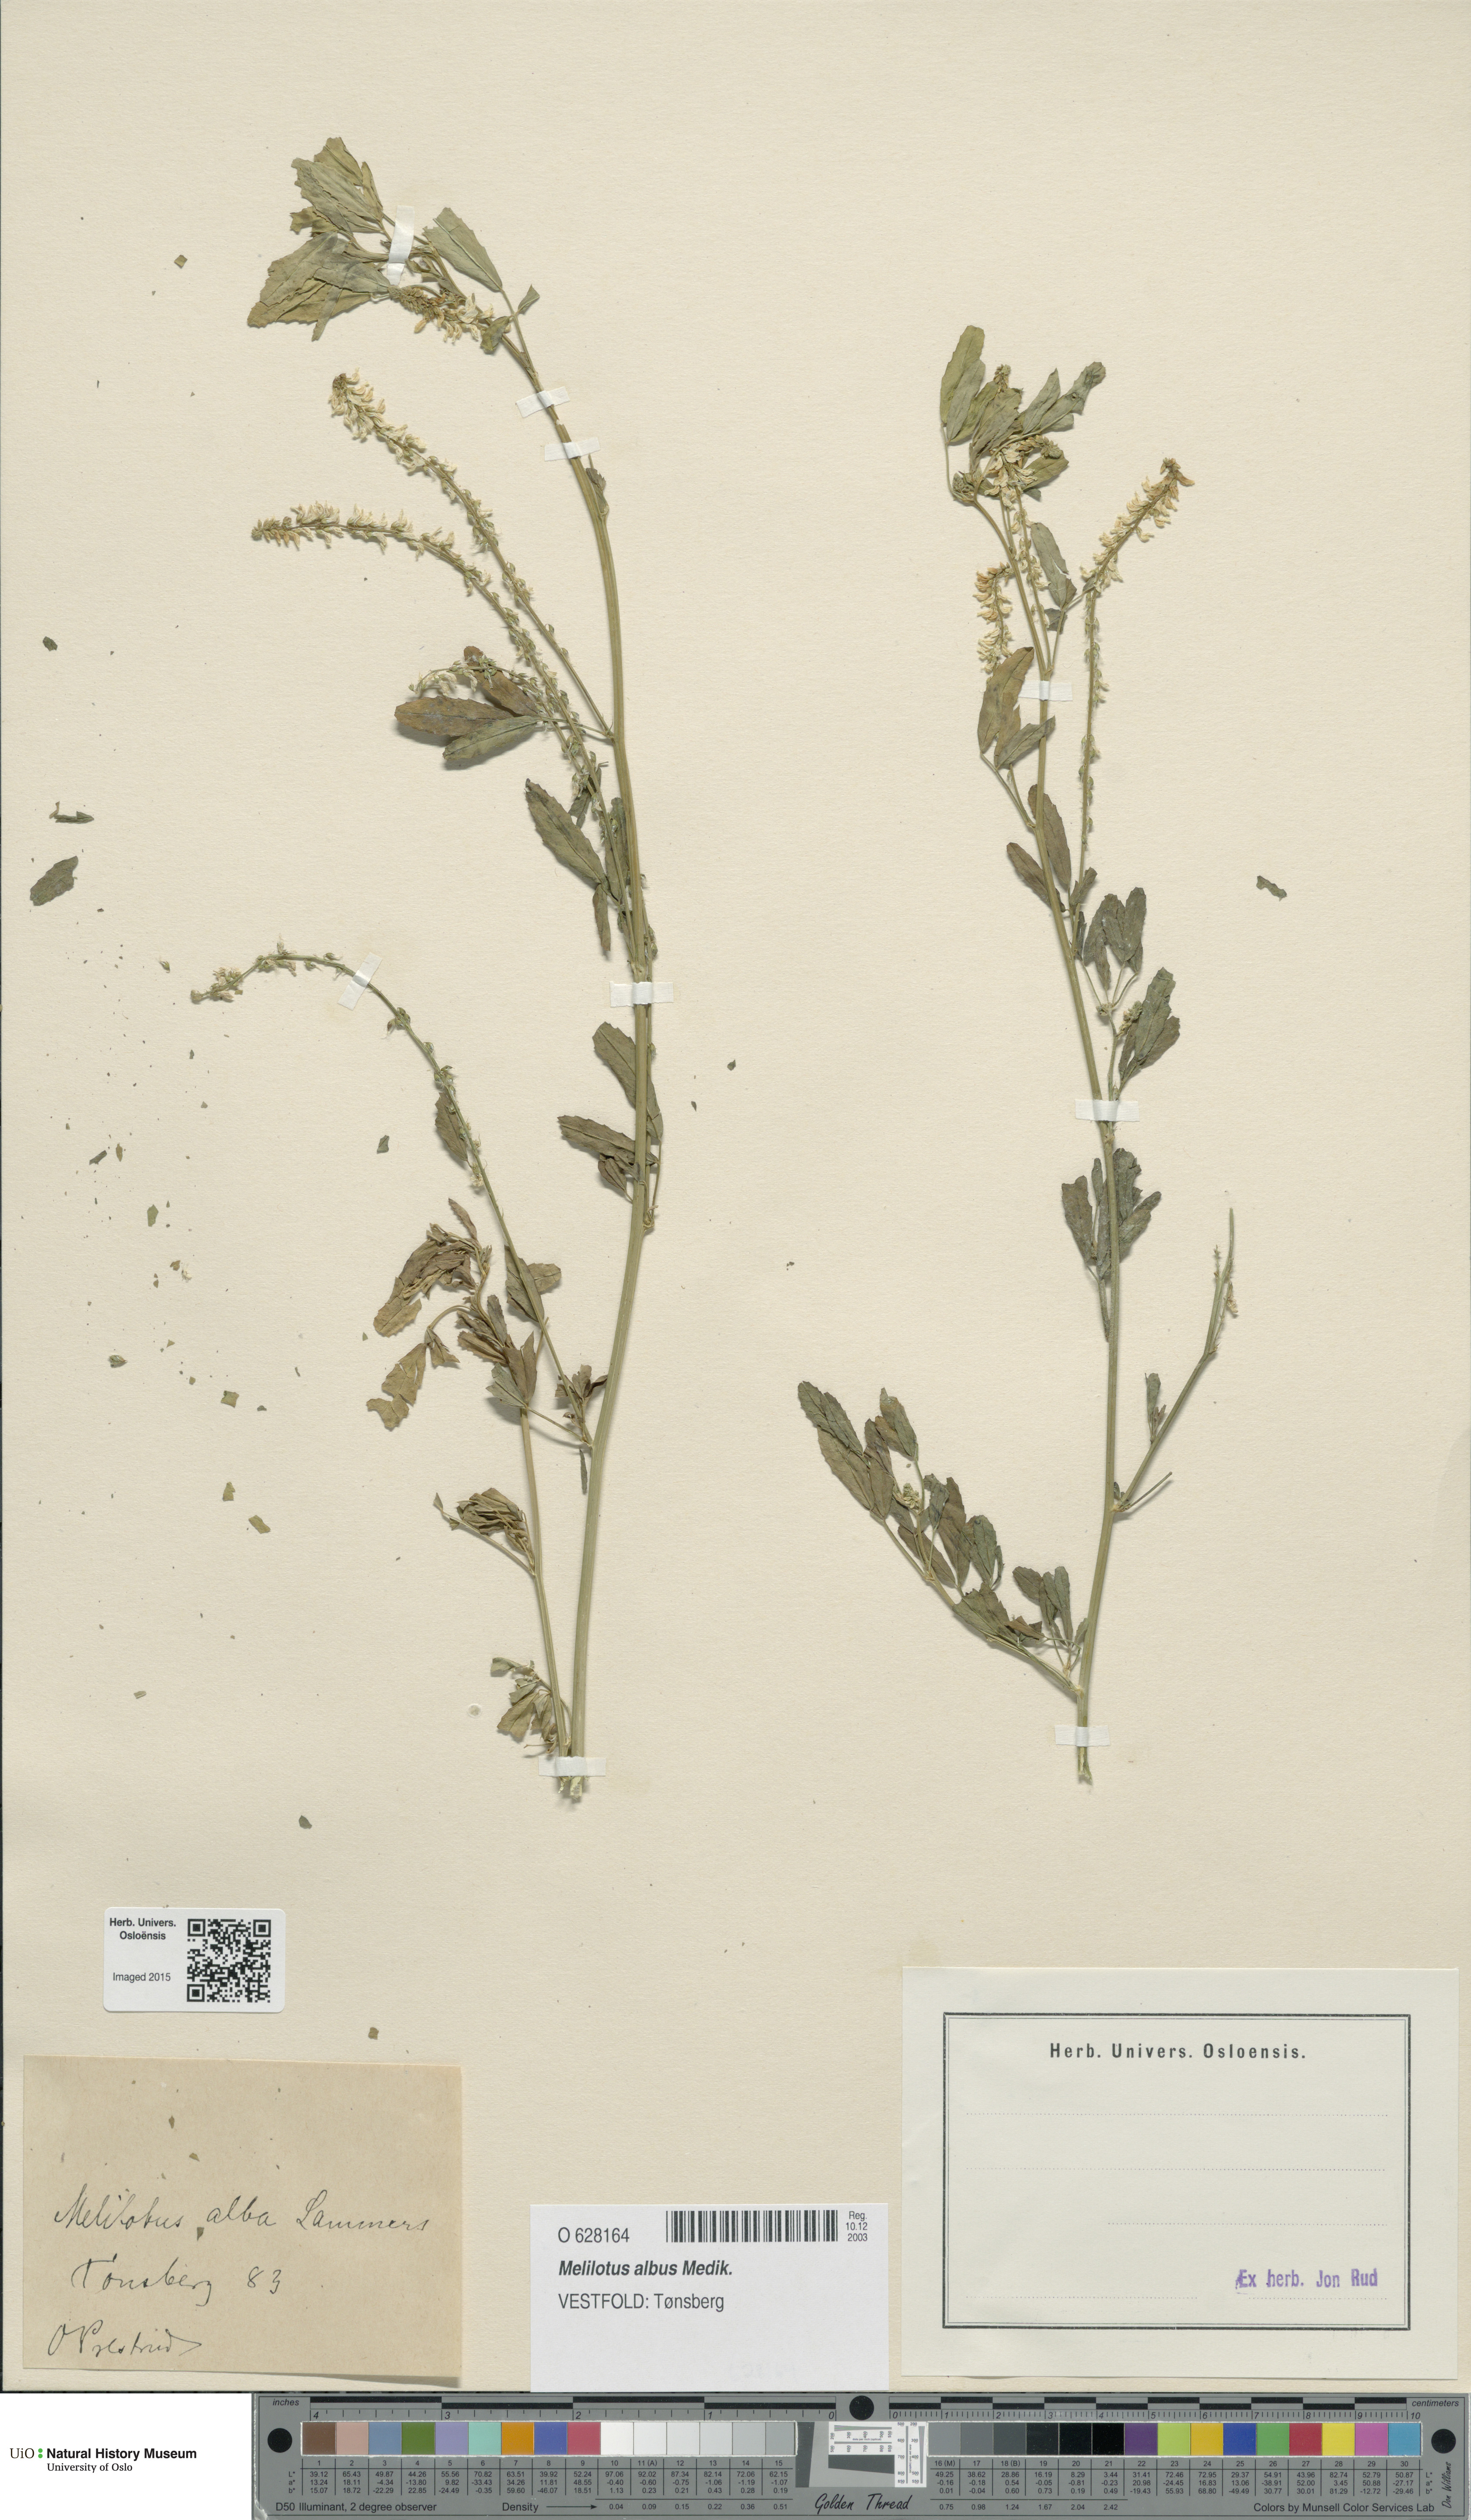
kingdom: Plantae
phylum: Tracheophyta
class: Magnoliopsida
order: Fabales
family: Fabaceae
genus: Melilotus
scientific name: Melilotus albus
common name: White melilot
